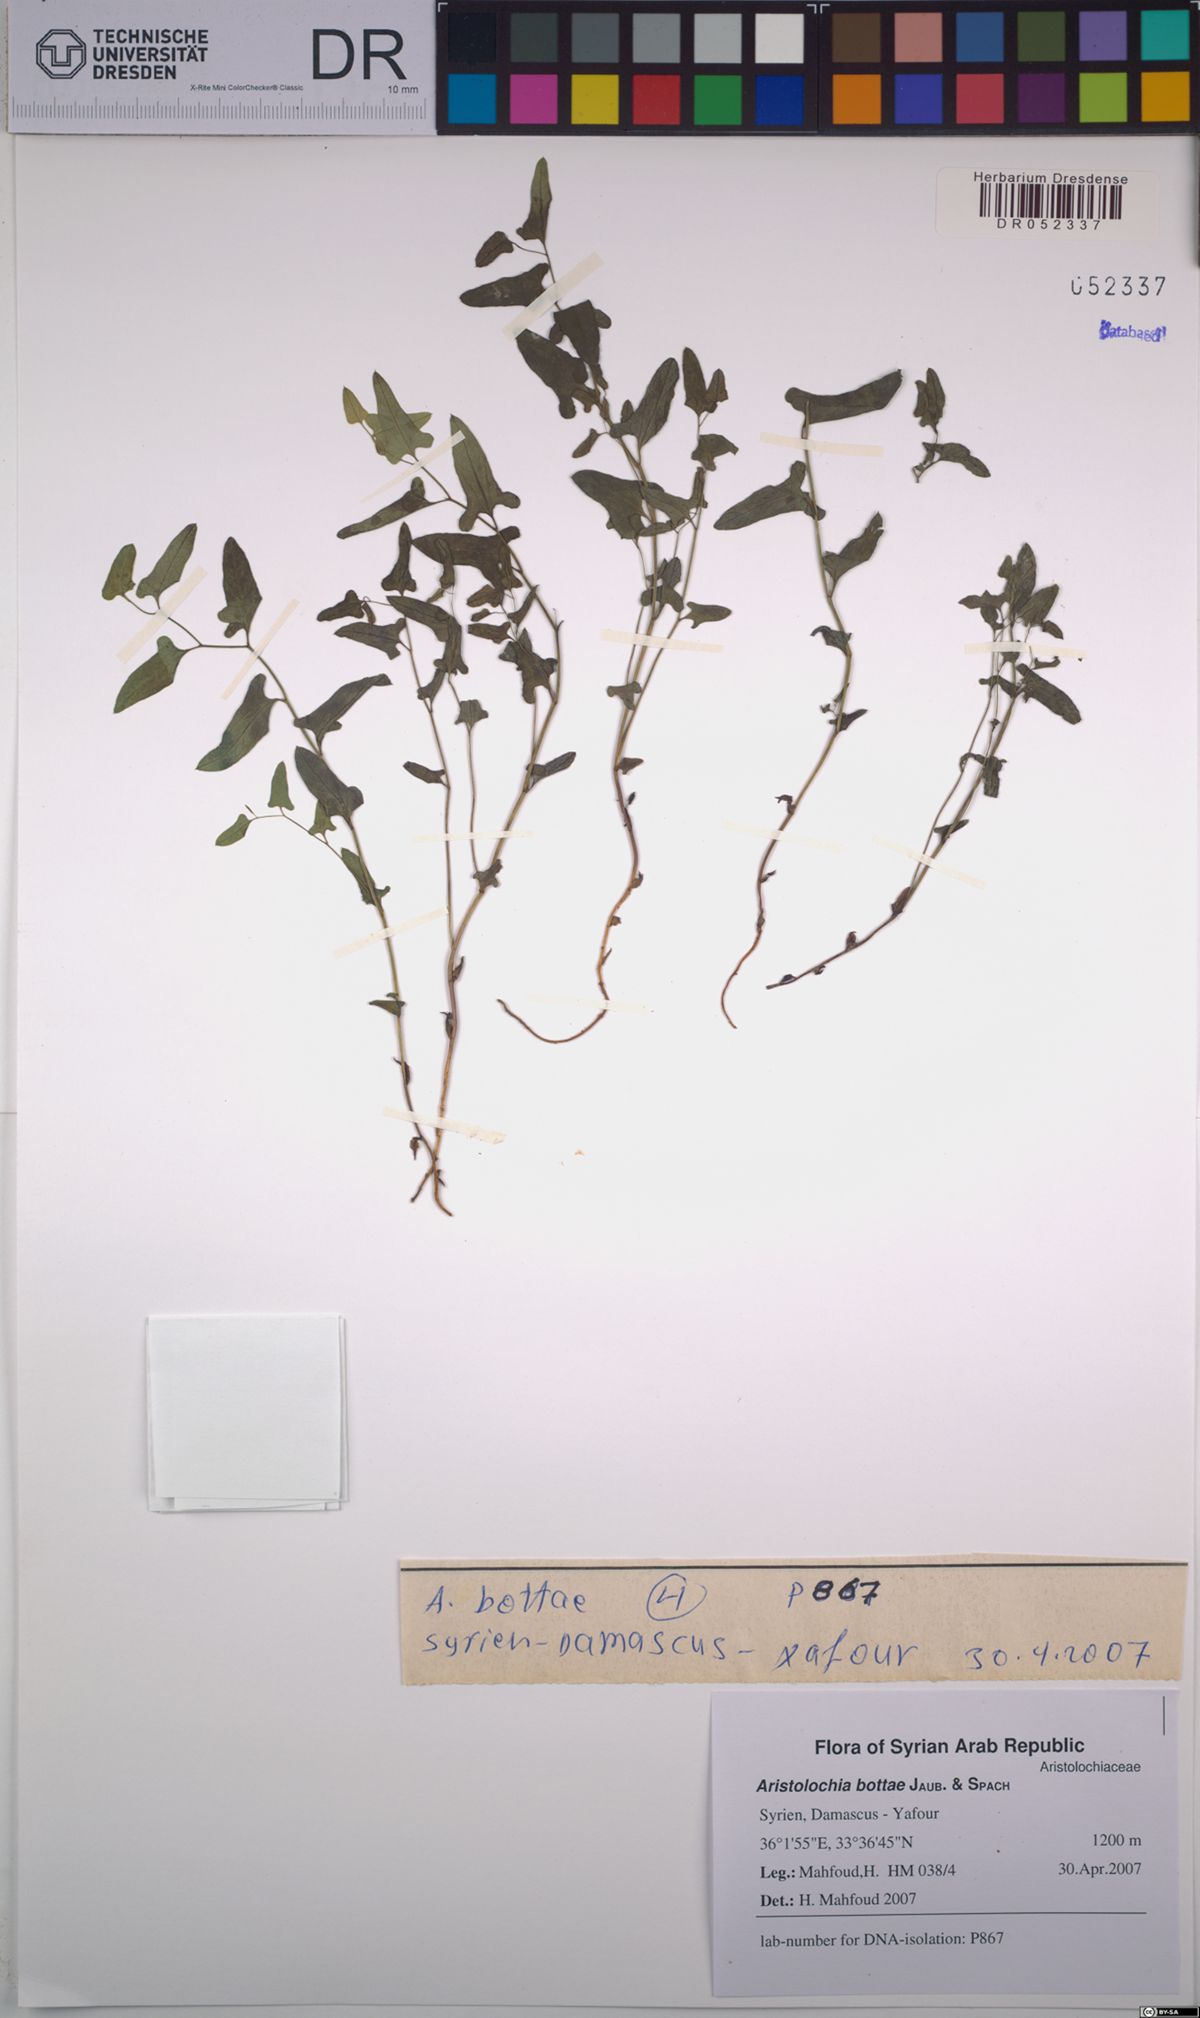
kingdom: Plantae
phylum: Tracheophyta
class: Magnoliopsida
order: Piperales
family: Aristolochiaceae
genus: Aristolochia
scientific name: Aristolochia bottae
